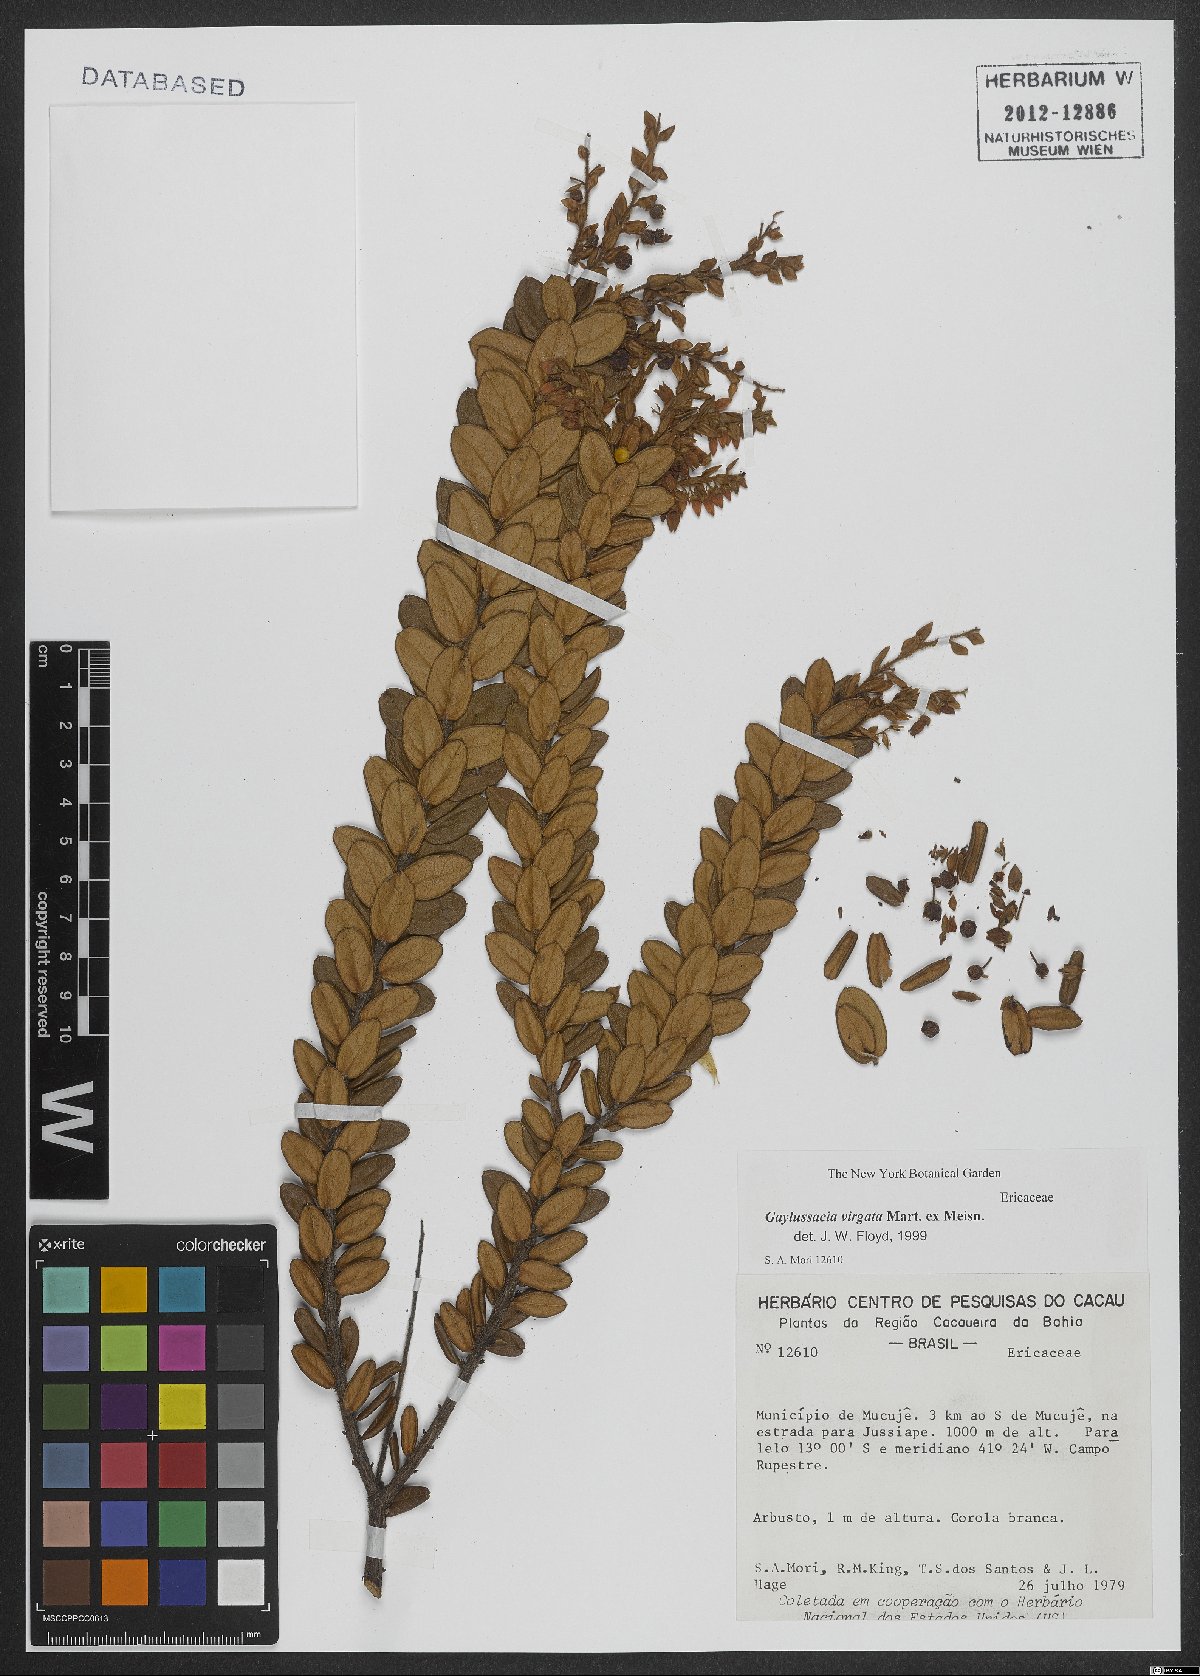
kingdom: Plantae
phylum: Tracheophyta
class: Magnoliopsida
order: Ericales
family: Ericaceae
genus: Gaylussacia
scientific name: Gaylussacia virgata
